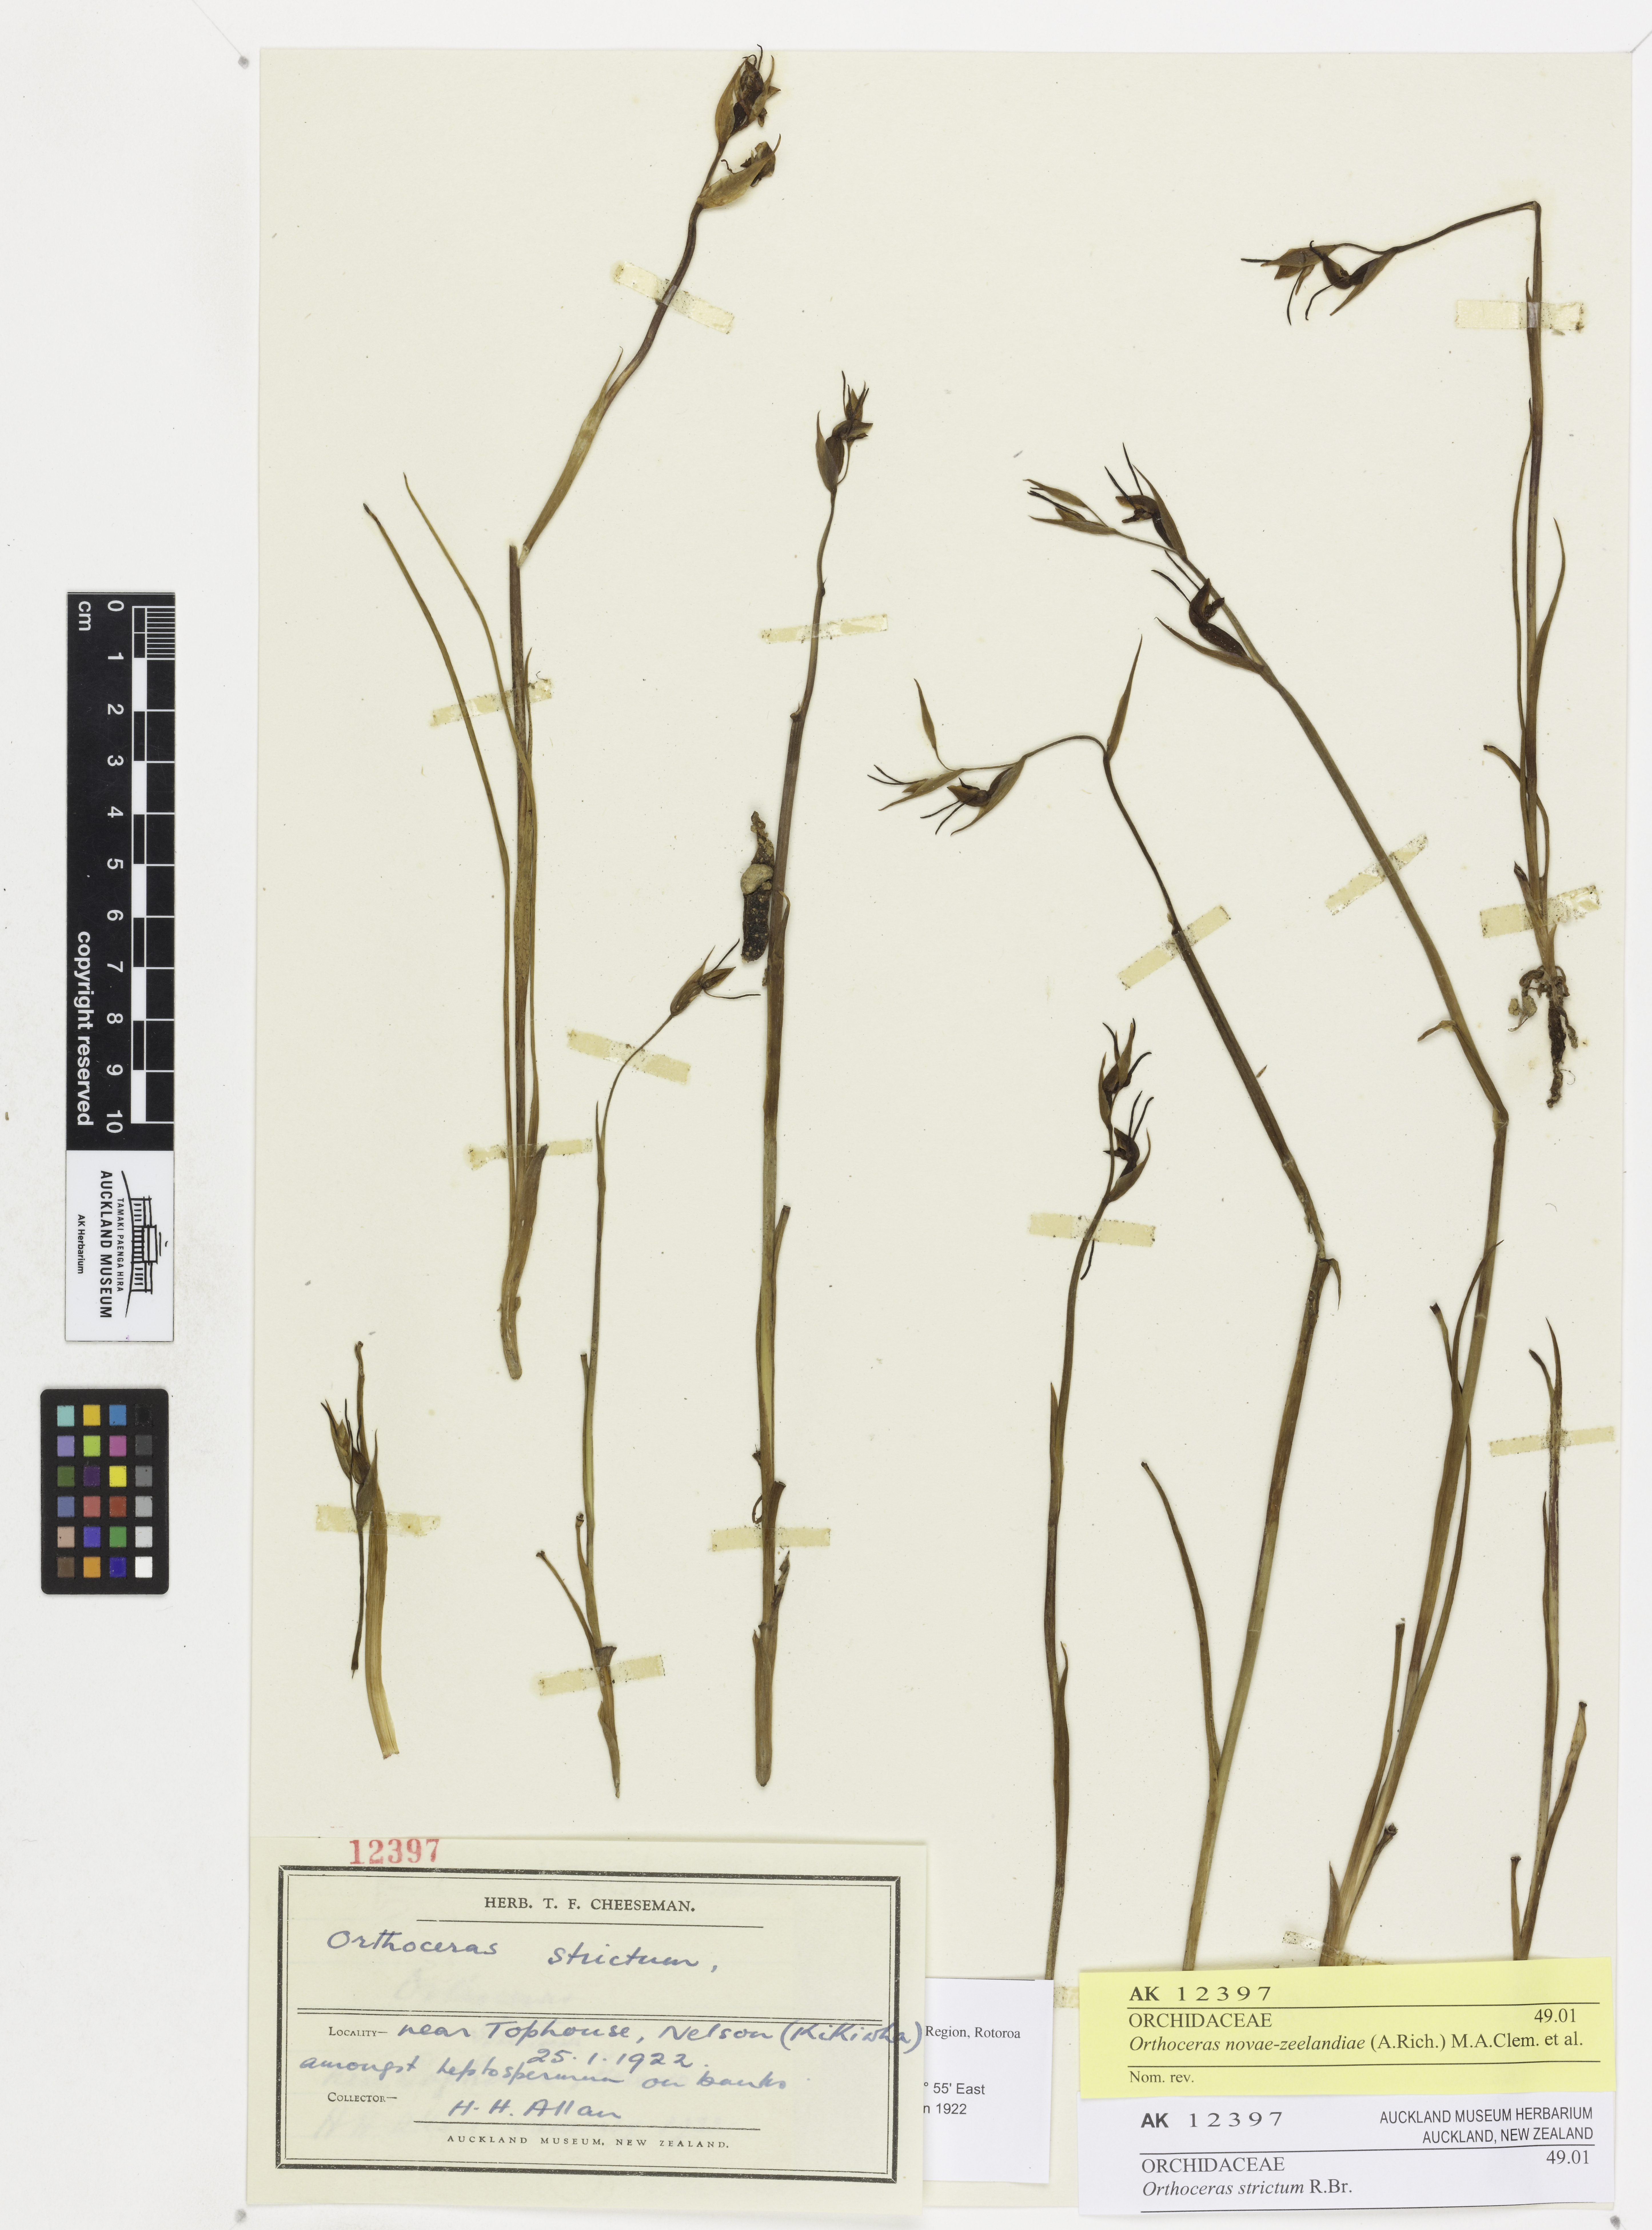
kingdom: Plantae
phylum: Tracheophyta
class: Liliopsida
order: Asparagales
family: Orchidaceae
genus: Orthoceras
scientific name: Orthoceras novae-zeelandiae
